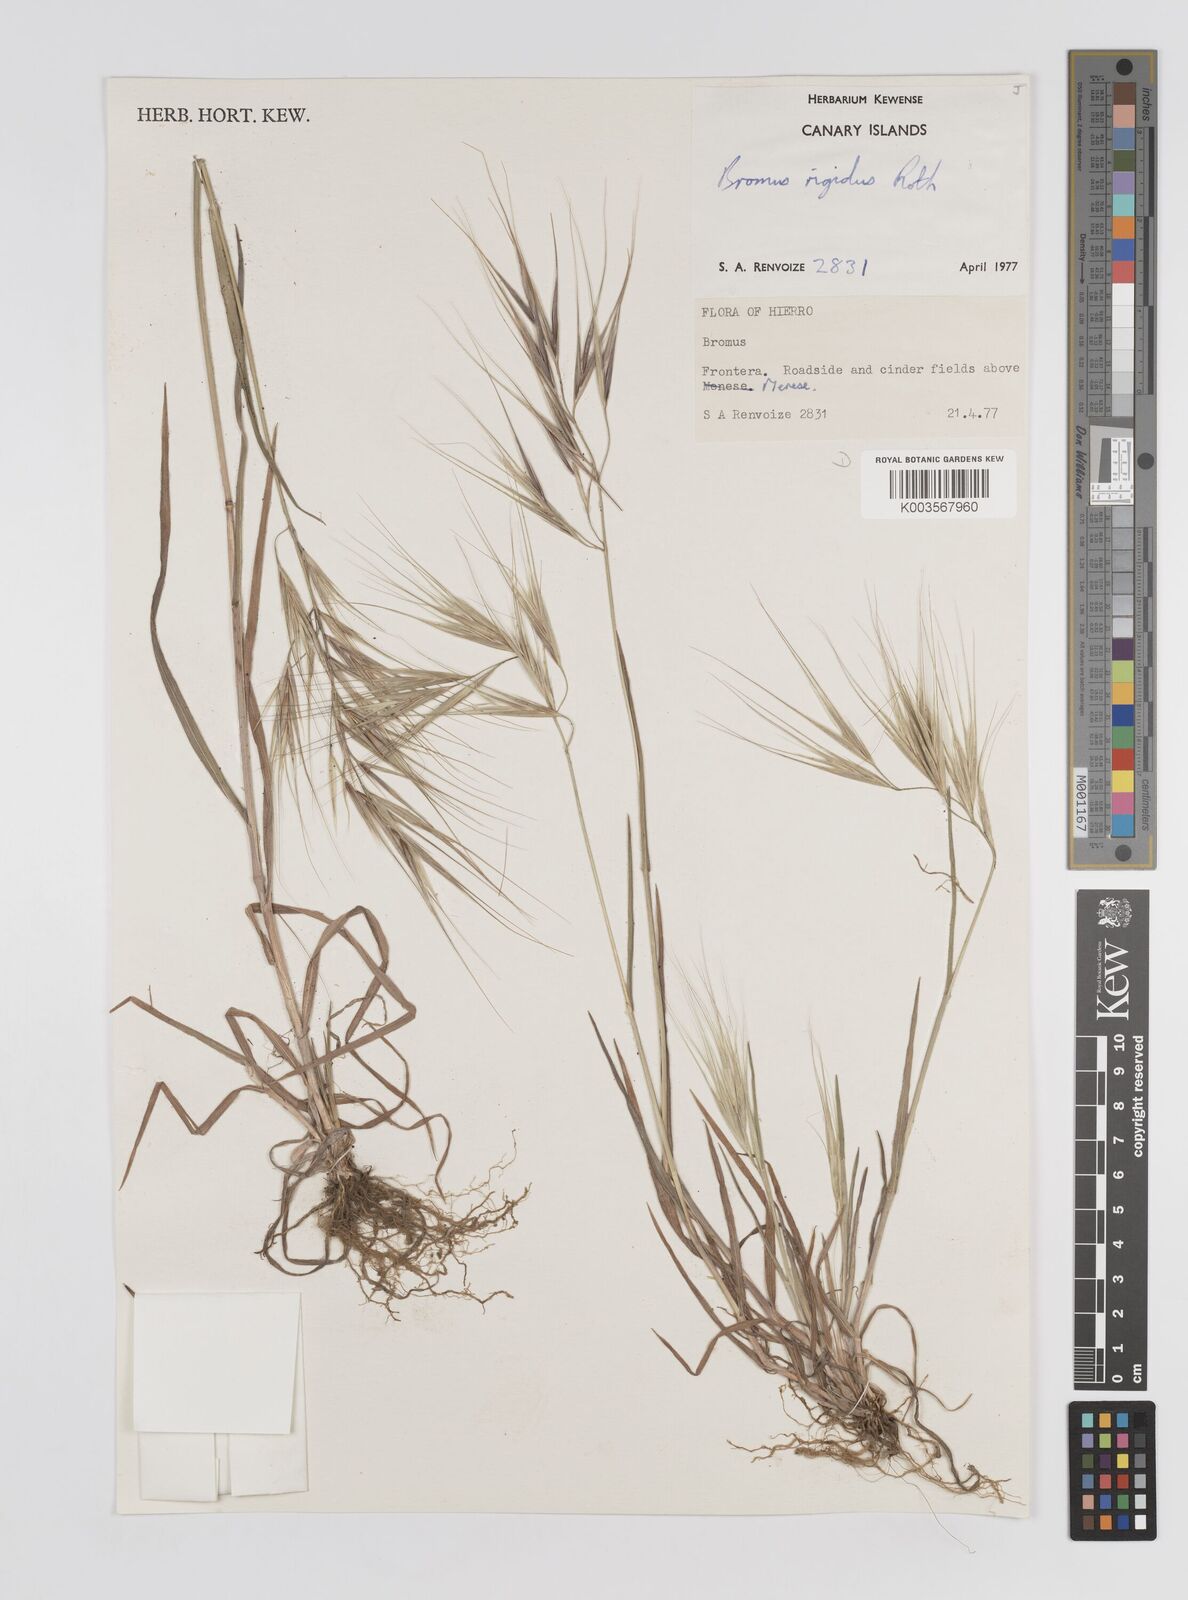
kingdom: Plantae
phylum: Tracheophyta
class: Liliopsida
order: Poales
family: Poaceae
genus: Bromus
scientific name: Bromus diandrus
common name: Ripgut brome
